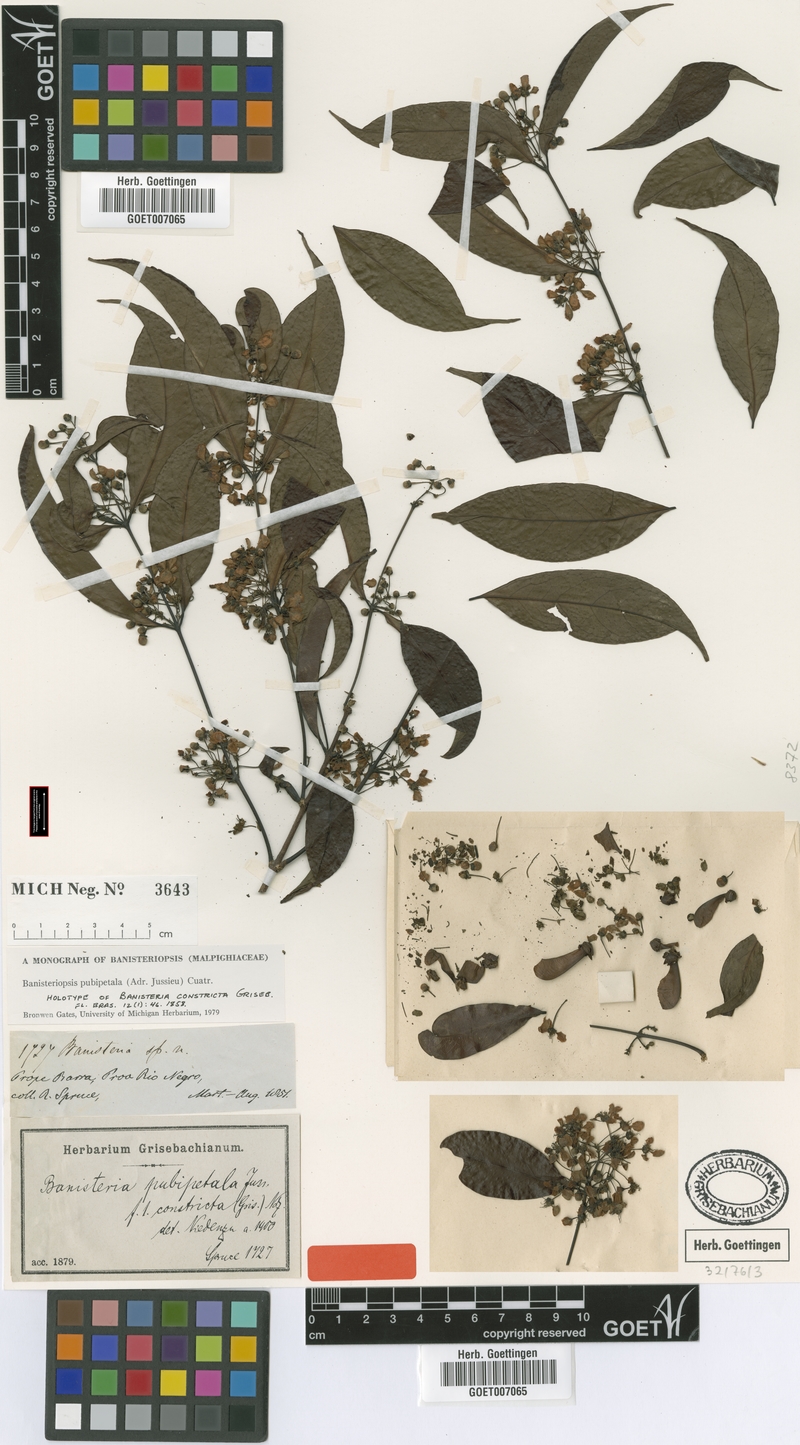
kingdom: Plantae
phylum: Tracheophyta
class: Magnoliopsida
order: Malpighiales
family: Malpighiaceae
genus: Diplopterys
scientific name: Diplopterys pubipetala
